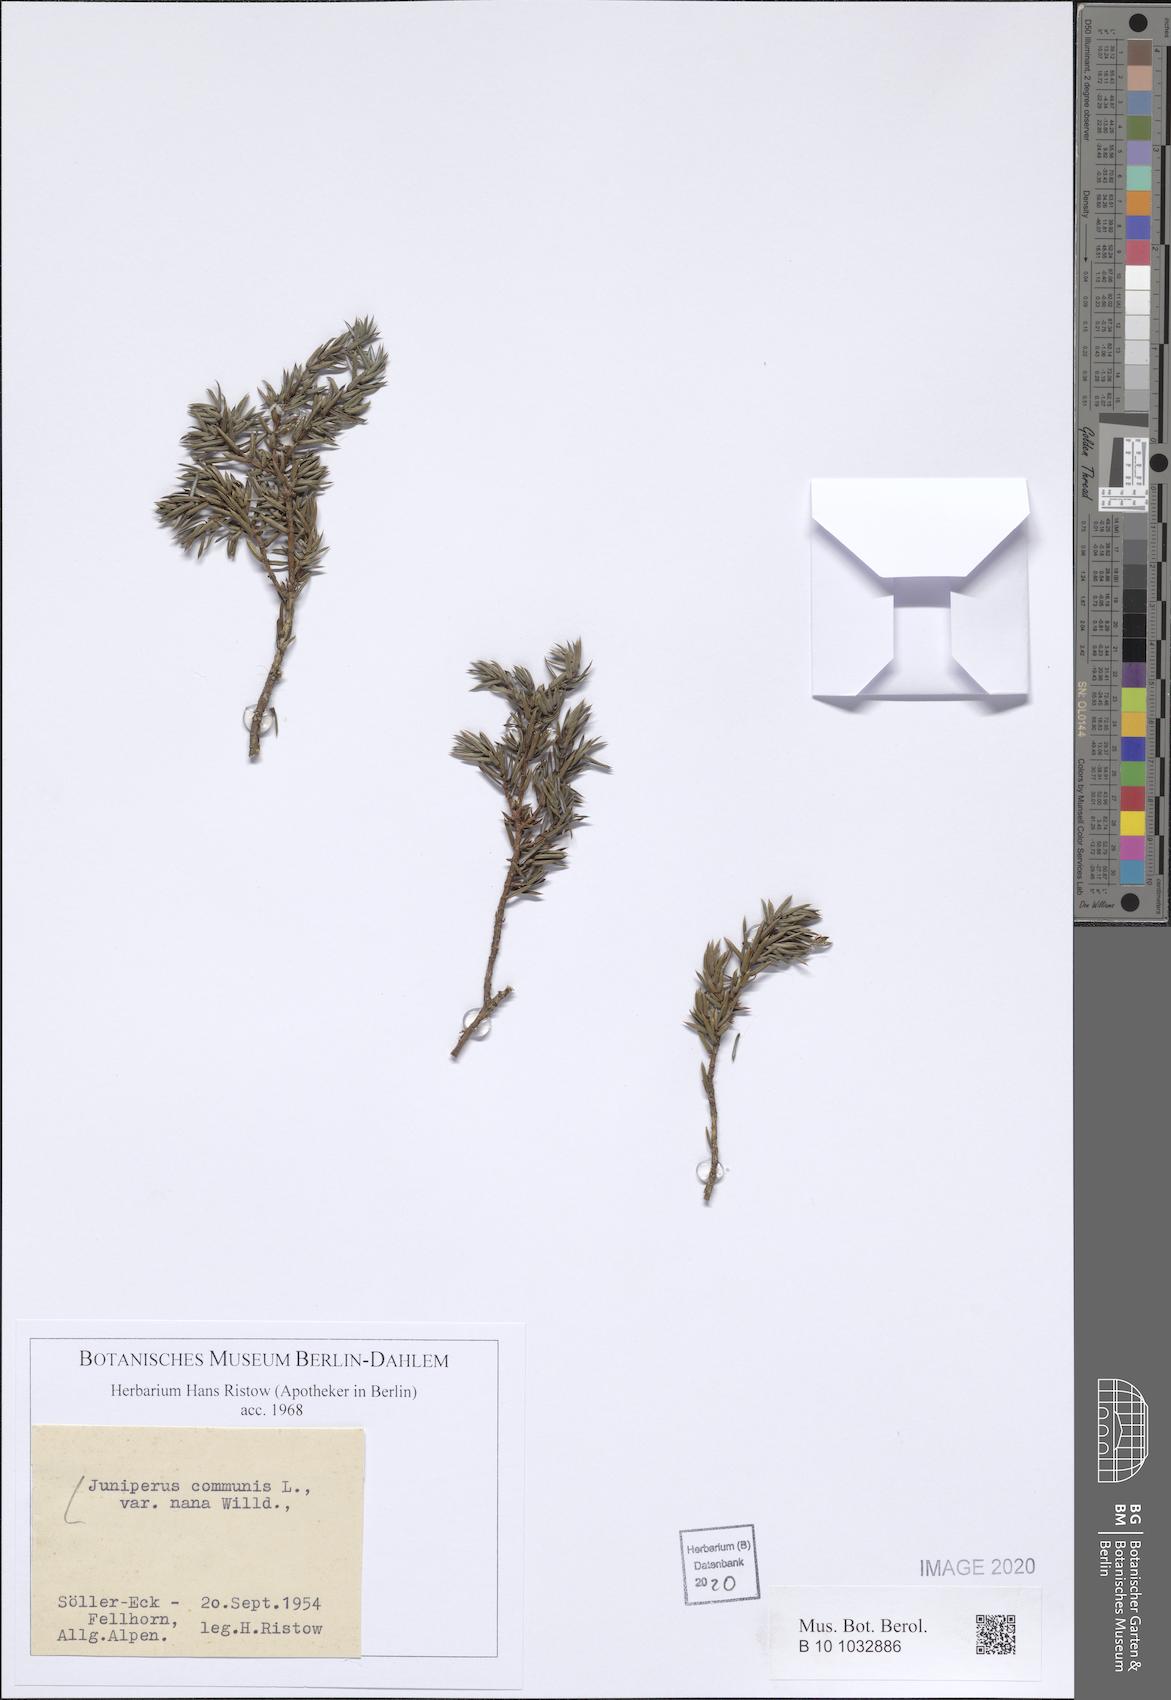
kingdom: Plantae
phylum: Tracheophyta
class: Pinopsida
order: Pinales
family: Cupressaceae
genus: Juniperus
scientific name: Juniperus communis
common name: Common juniper
